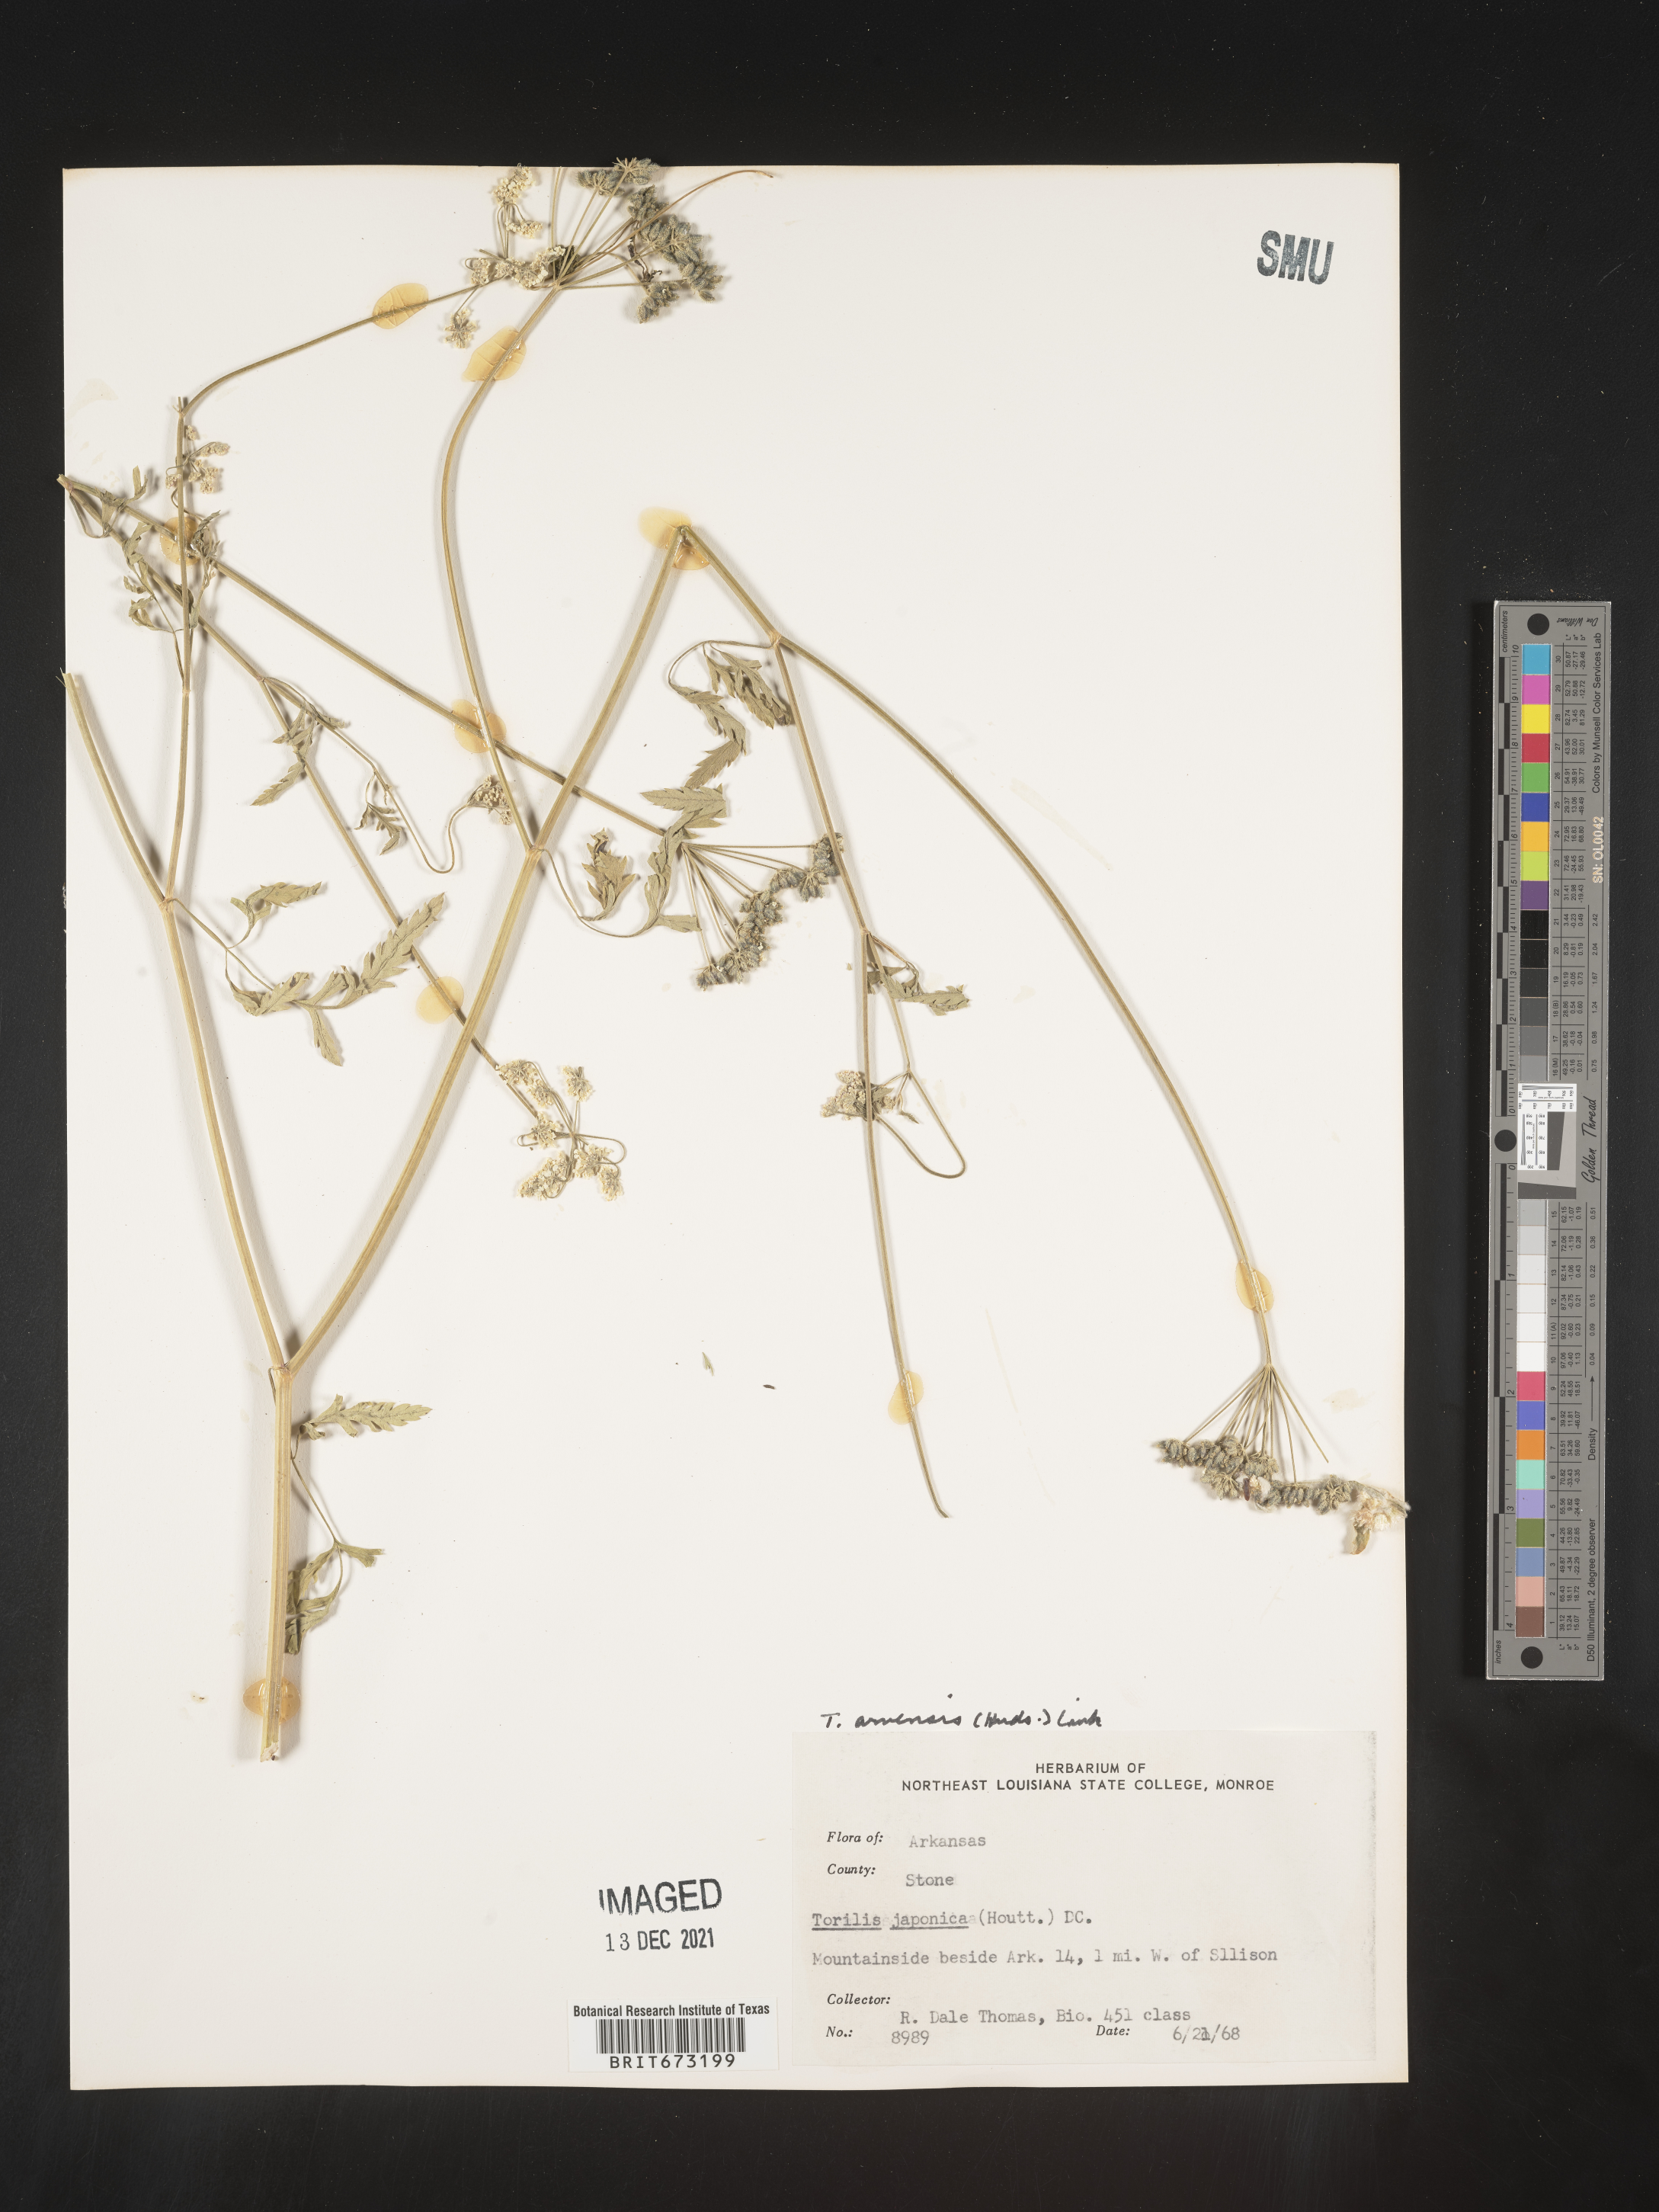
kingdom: Plantae
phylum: Tracheophyta
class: Magnoliopsida
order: Apiales
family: Apiaceae
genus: Torilis
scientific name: Torilis arvensis
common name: Spreading hedge-parsley
